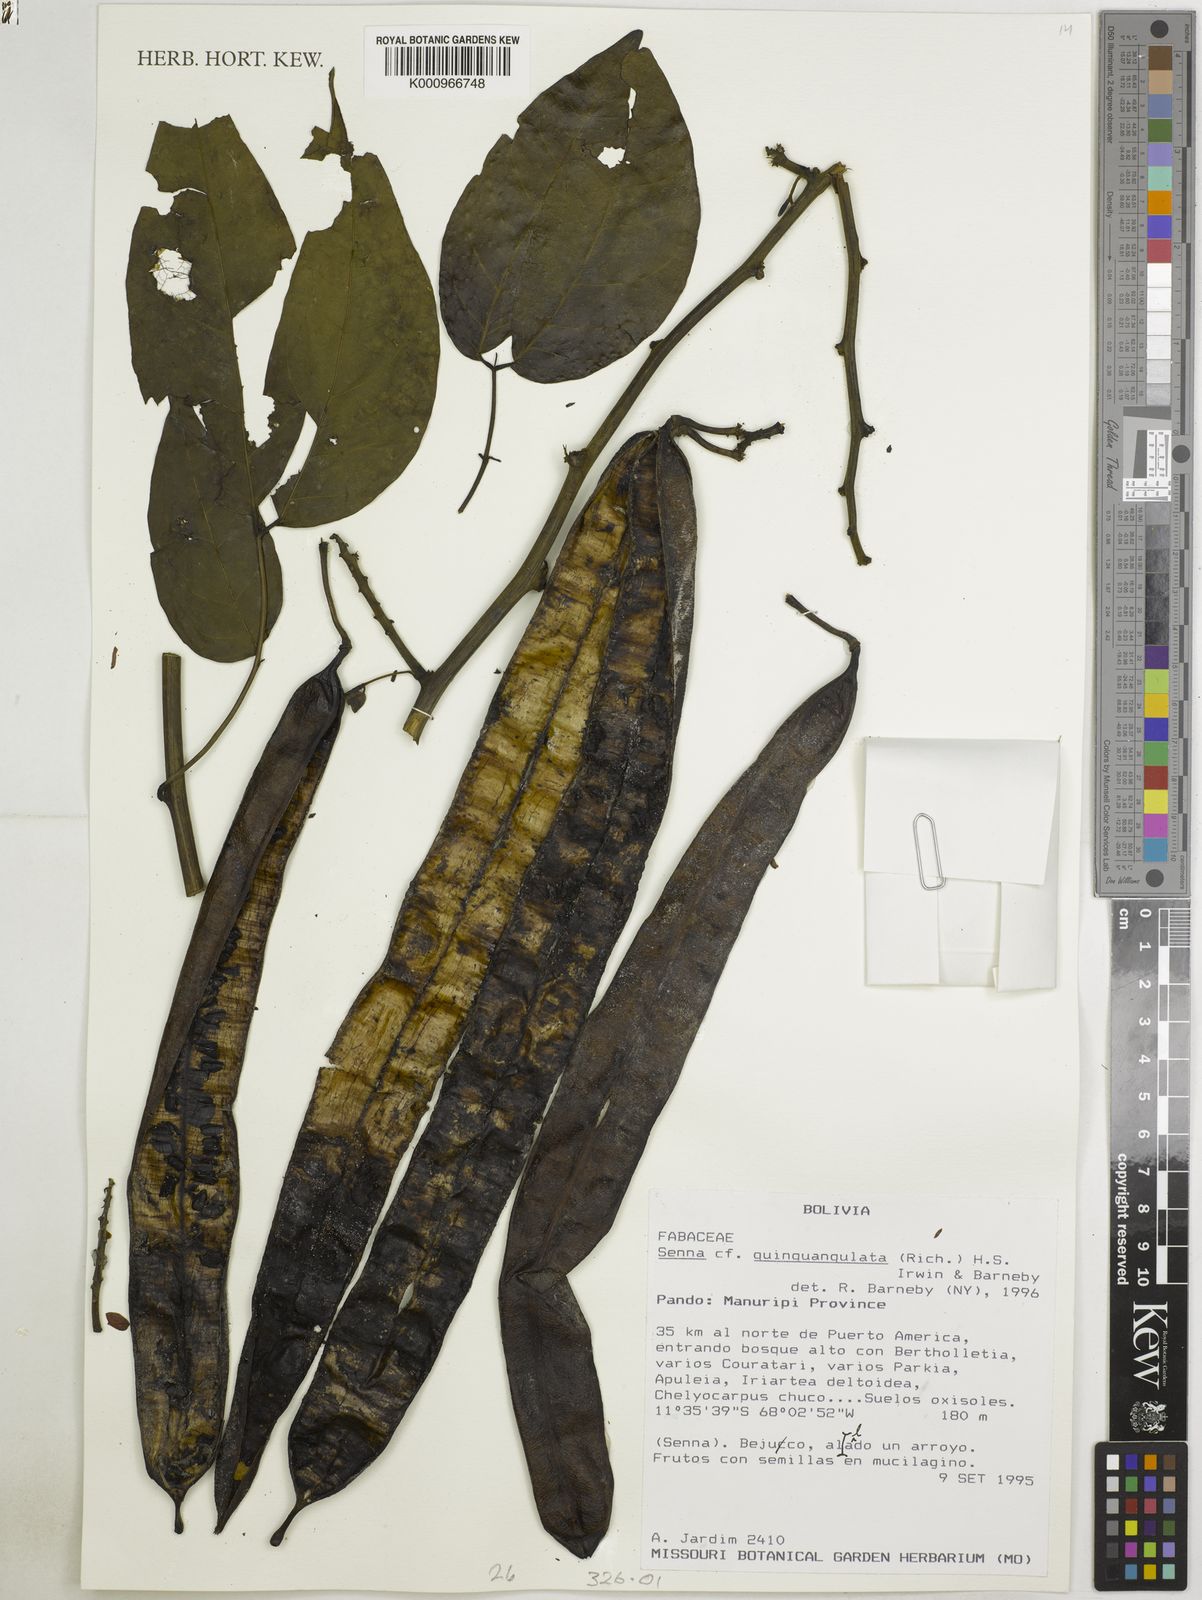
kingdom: Plantae
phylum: Tracheophyta
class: Magnoliopsida
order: Fabales
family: Fabaceae
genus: Senna
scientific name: Senna quinquangulata
